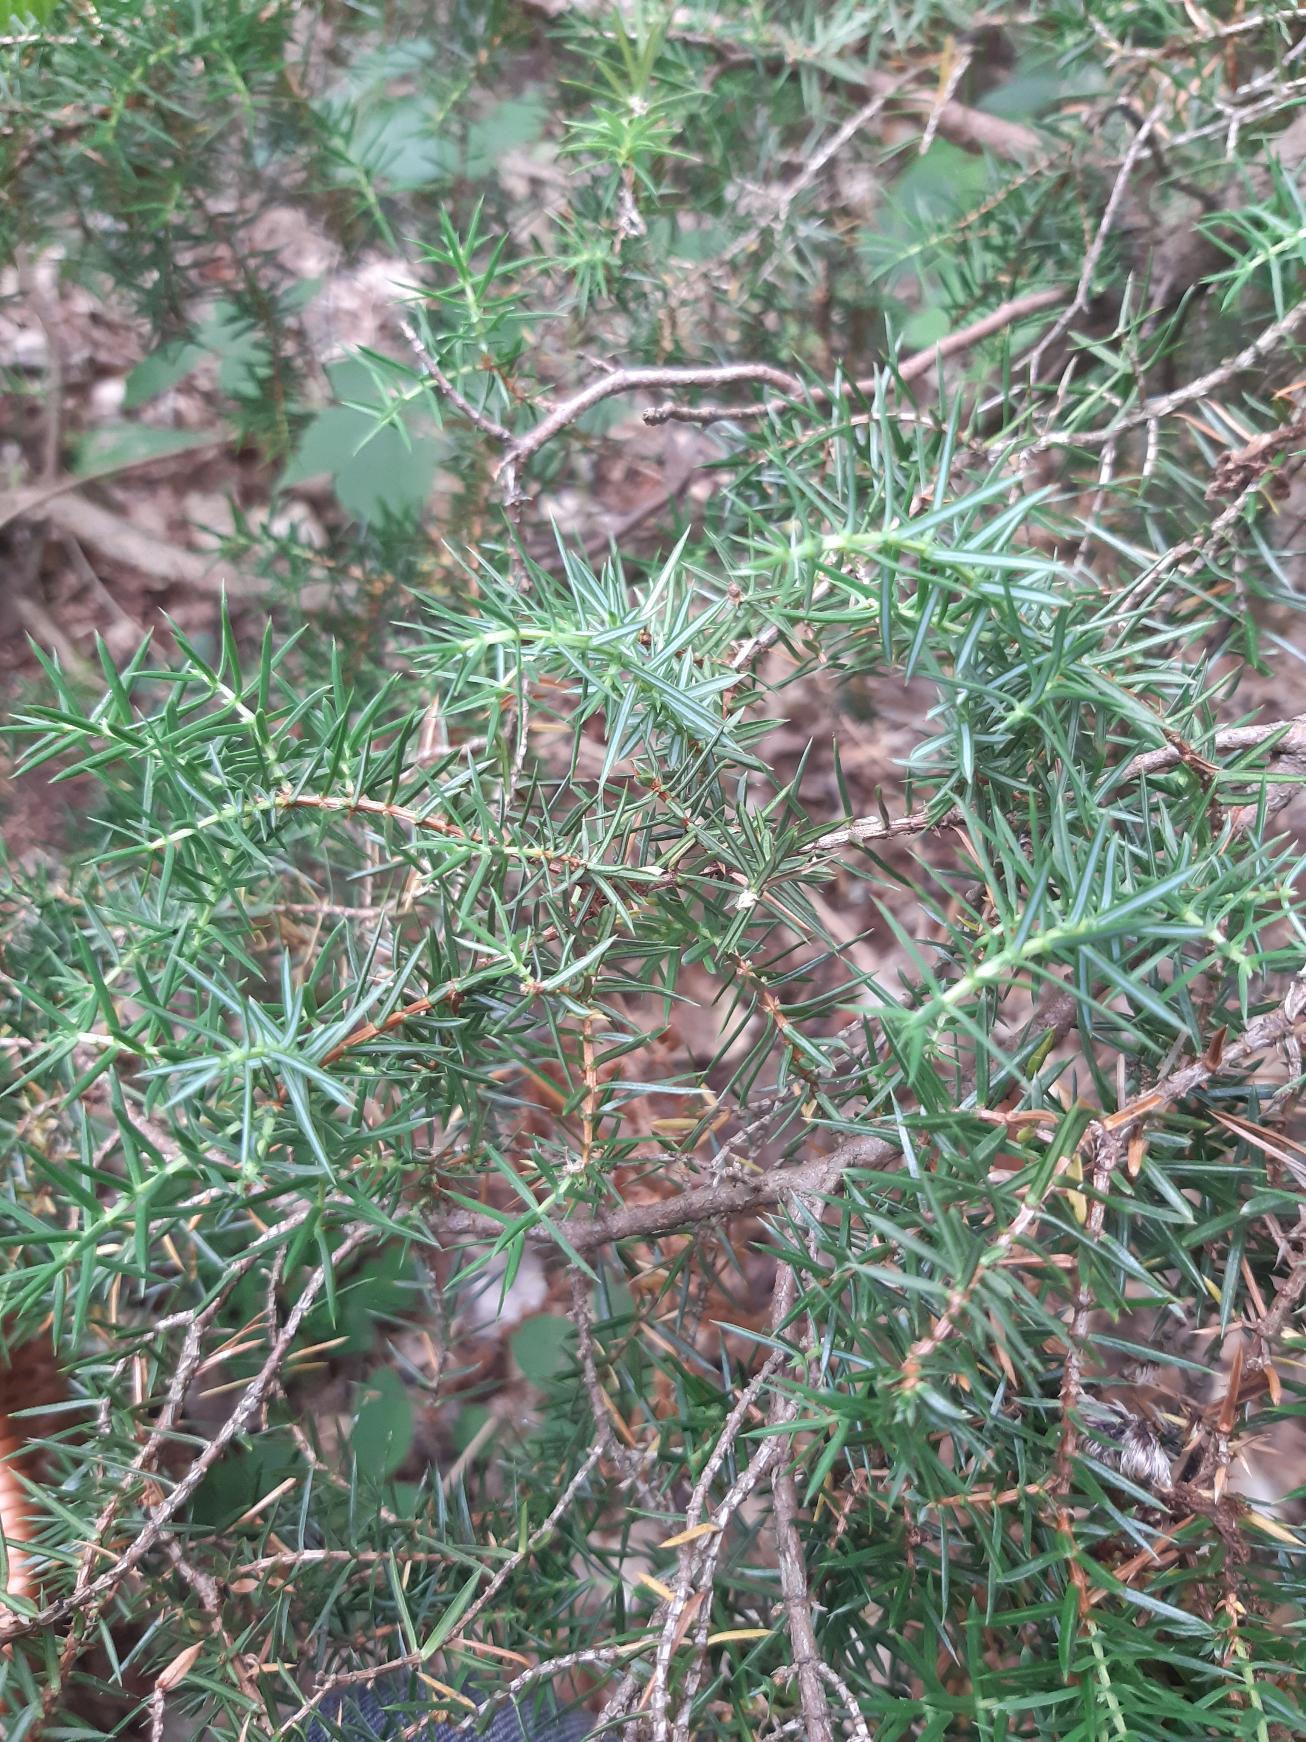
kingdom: Plantae
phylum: Tracheophyta
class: Pinopsida
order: Pinales
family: Cupressaceae
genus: Juniperus
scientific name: Juniperus communis
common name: Almindelig ene
